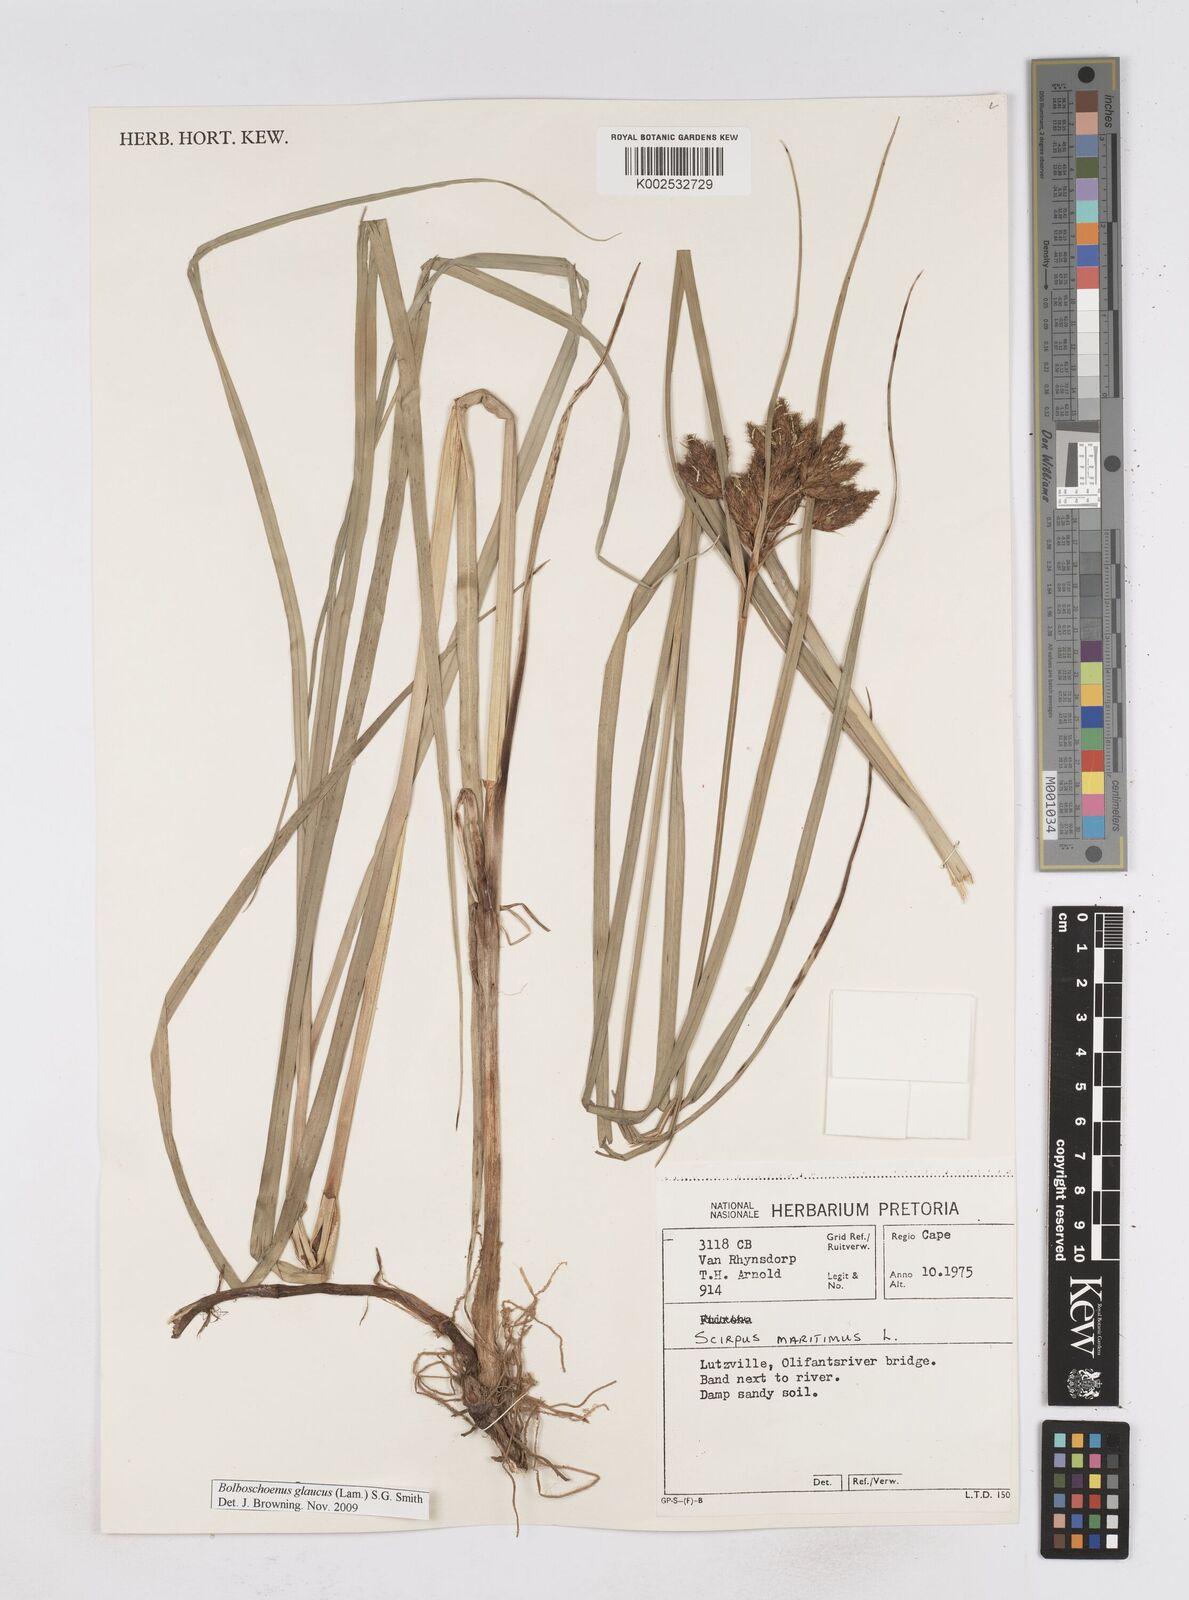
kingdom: Plantae
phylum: Tracheophyta
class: Liliopsida
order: Poales
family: Cyperaceae
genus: Bolboschoenus
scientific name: Bolboschoenus maritimus
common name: Sea club-rush
